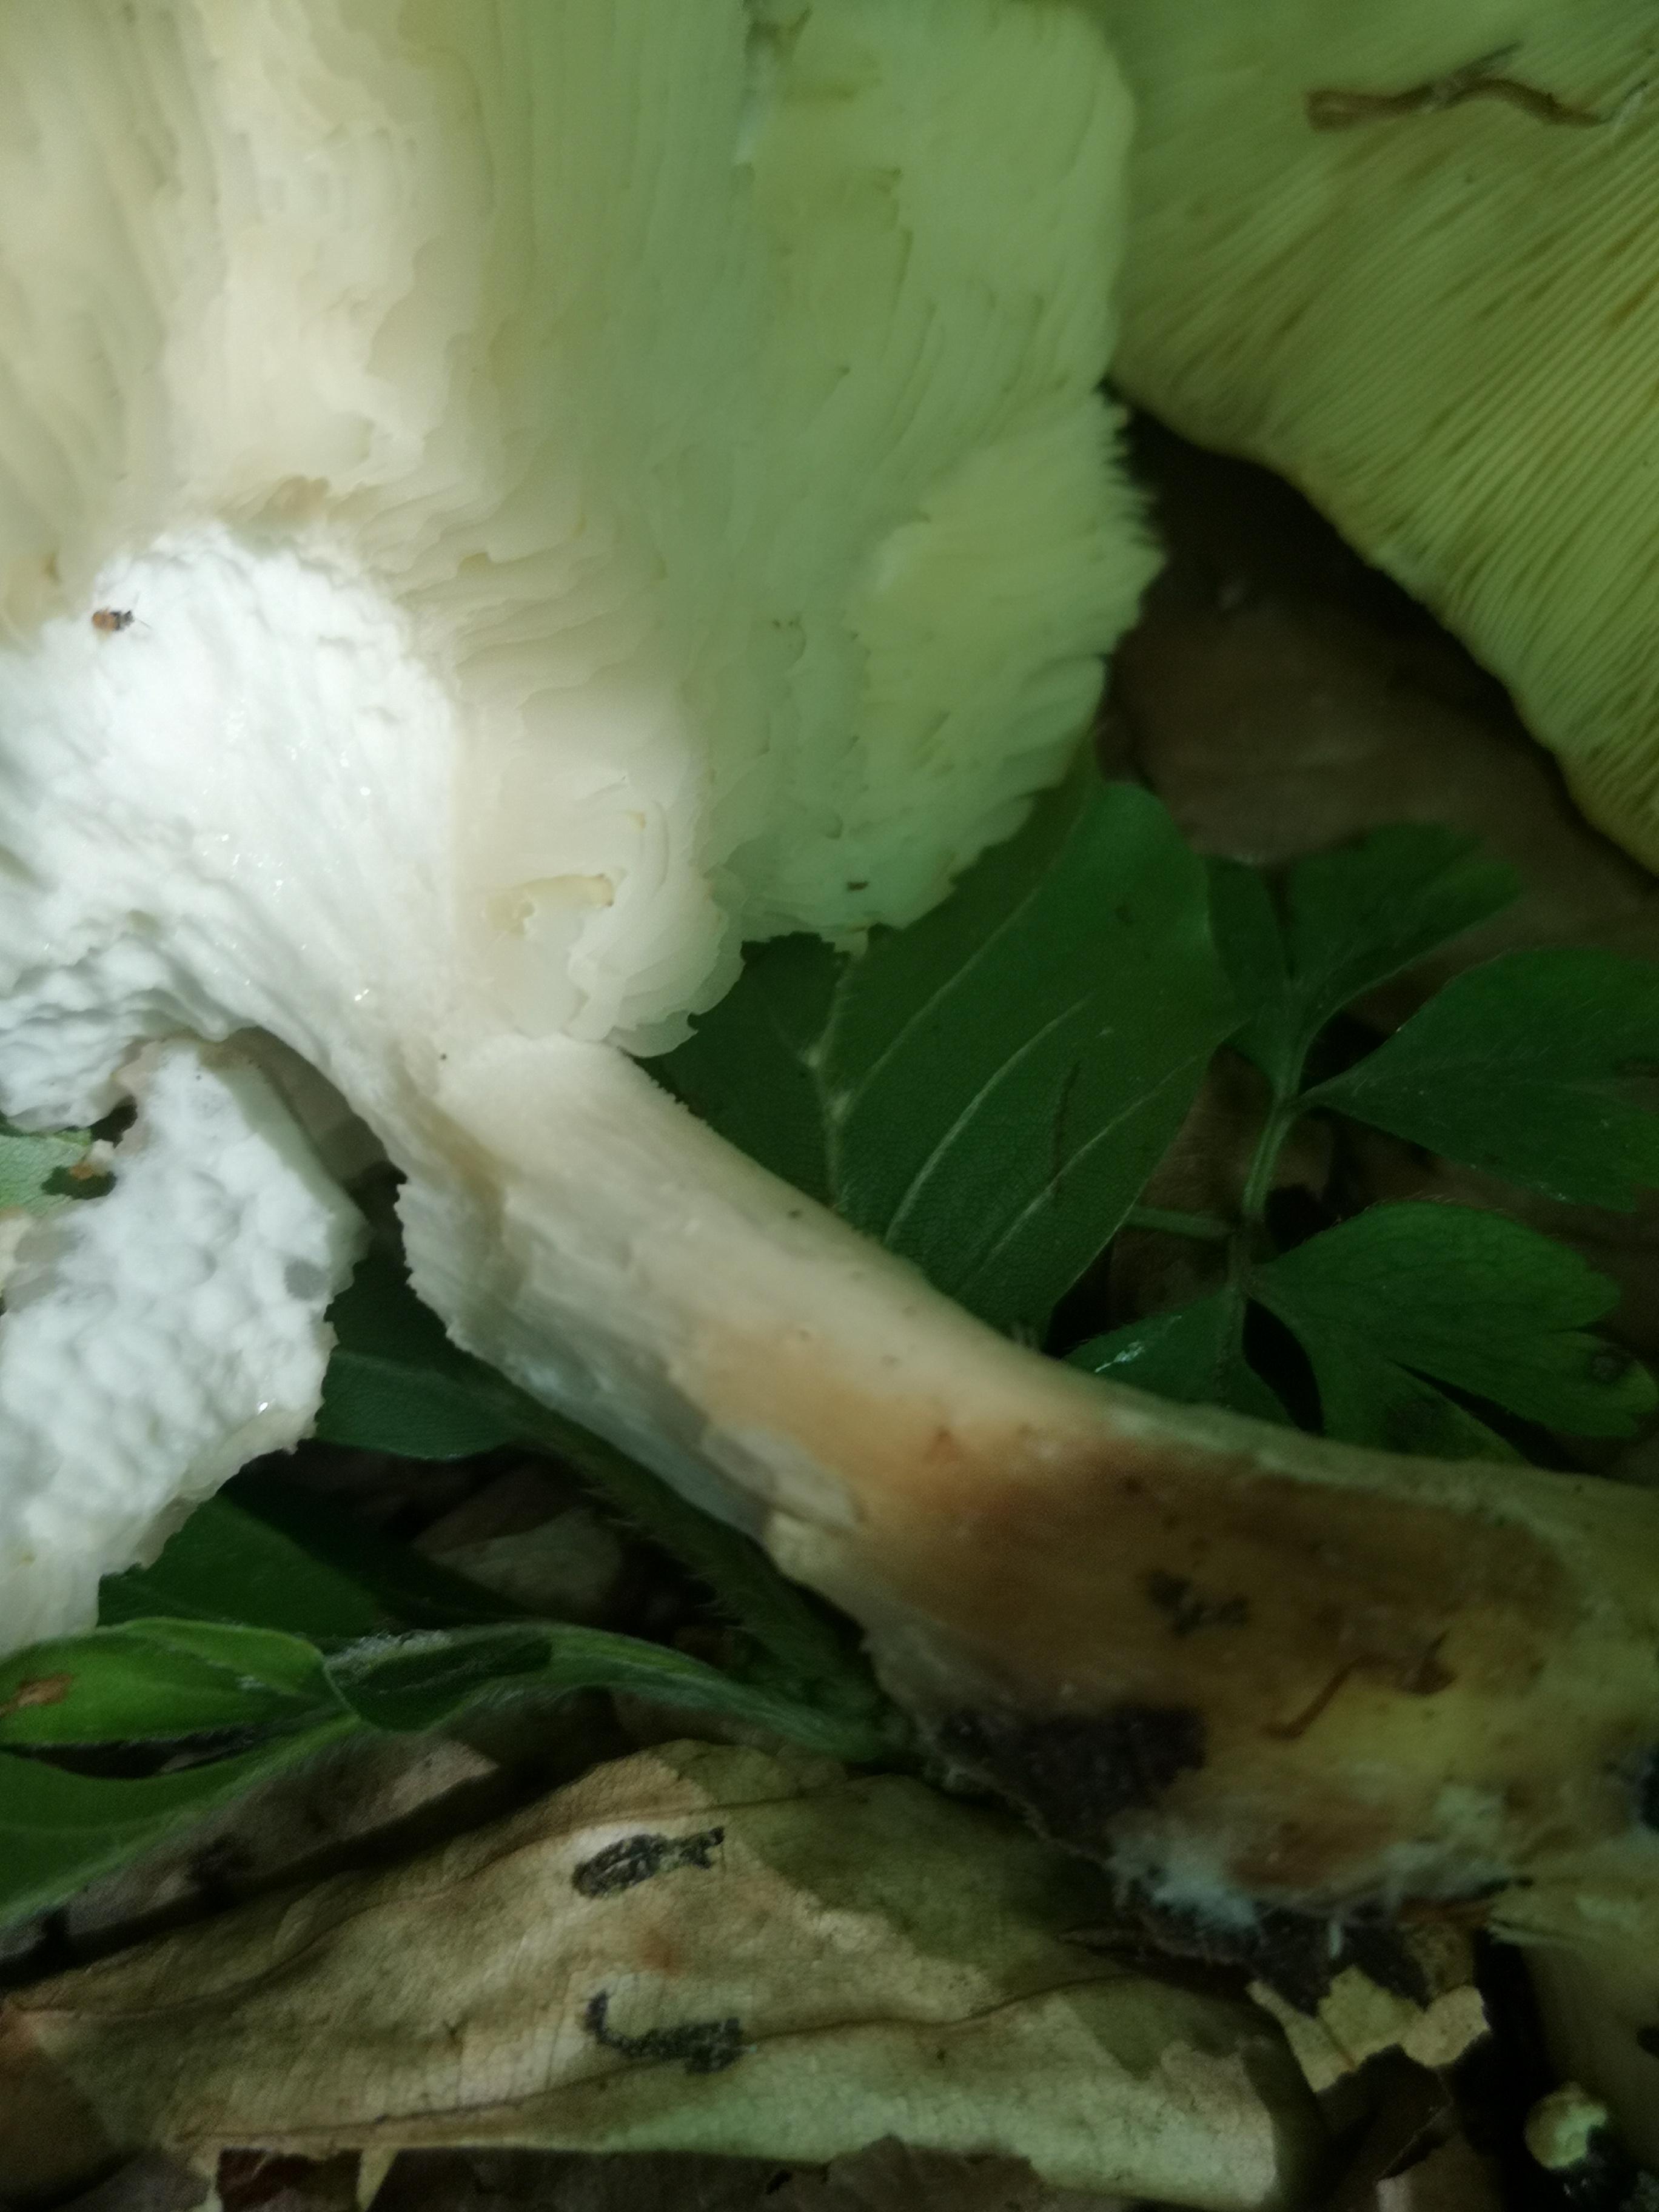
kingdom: Fungi
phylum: Basidiomycota
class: Agaricomycetes
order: Agaricales
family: Lyophyllaceae
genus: Calocybe
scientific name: Calocybe gambosa
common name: vårmusseron
